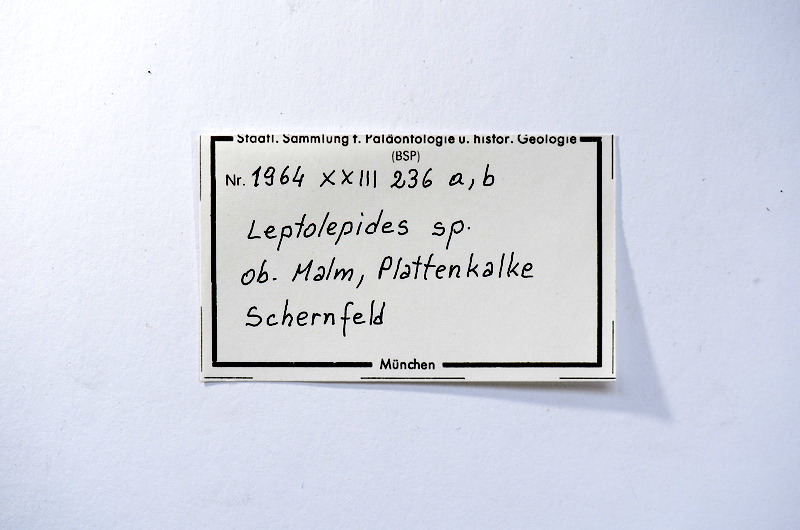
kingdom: Animalia
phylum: Chordata
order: Salmoniformes
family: Orthogonikleithridae
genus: Leptolepides
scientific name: Leptolepides
